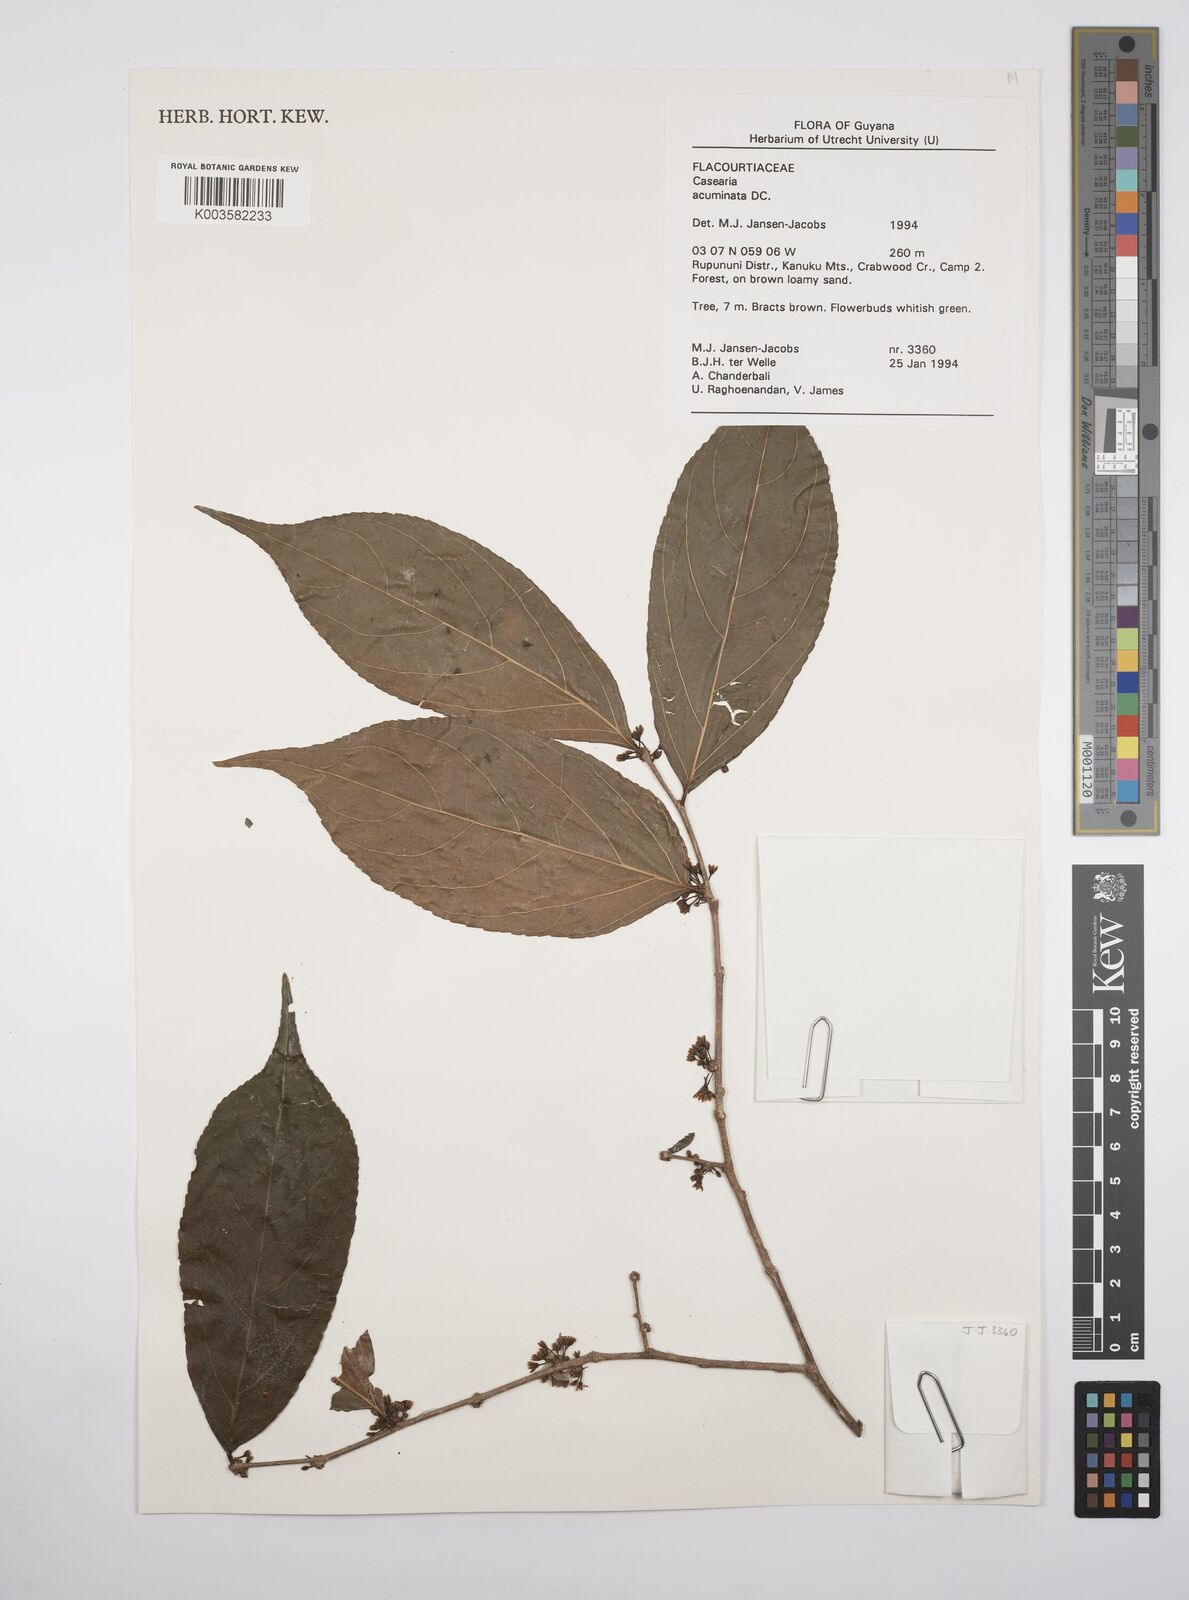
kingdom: Plantae
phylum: Tracheophyta
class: Magnoliopsida
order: Malpighiales
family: Salicaceae
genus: Casearia
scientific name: Casearia acuminata
